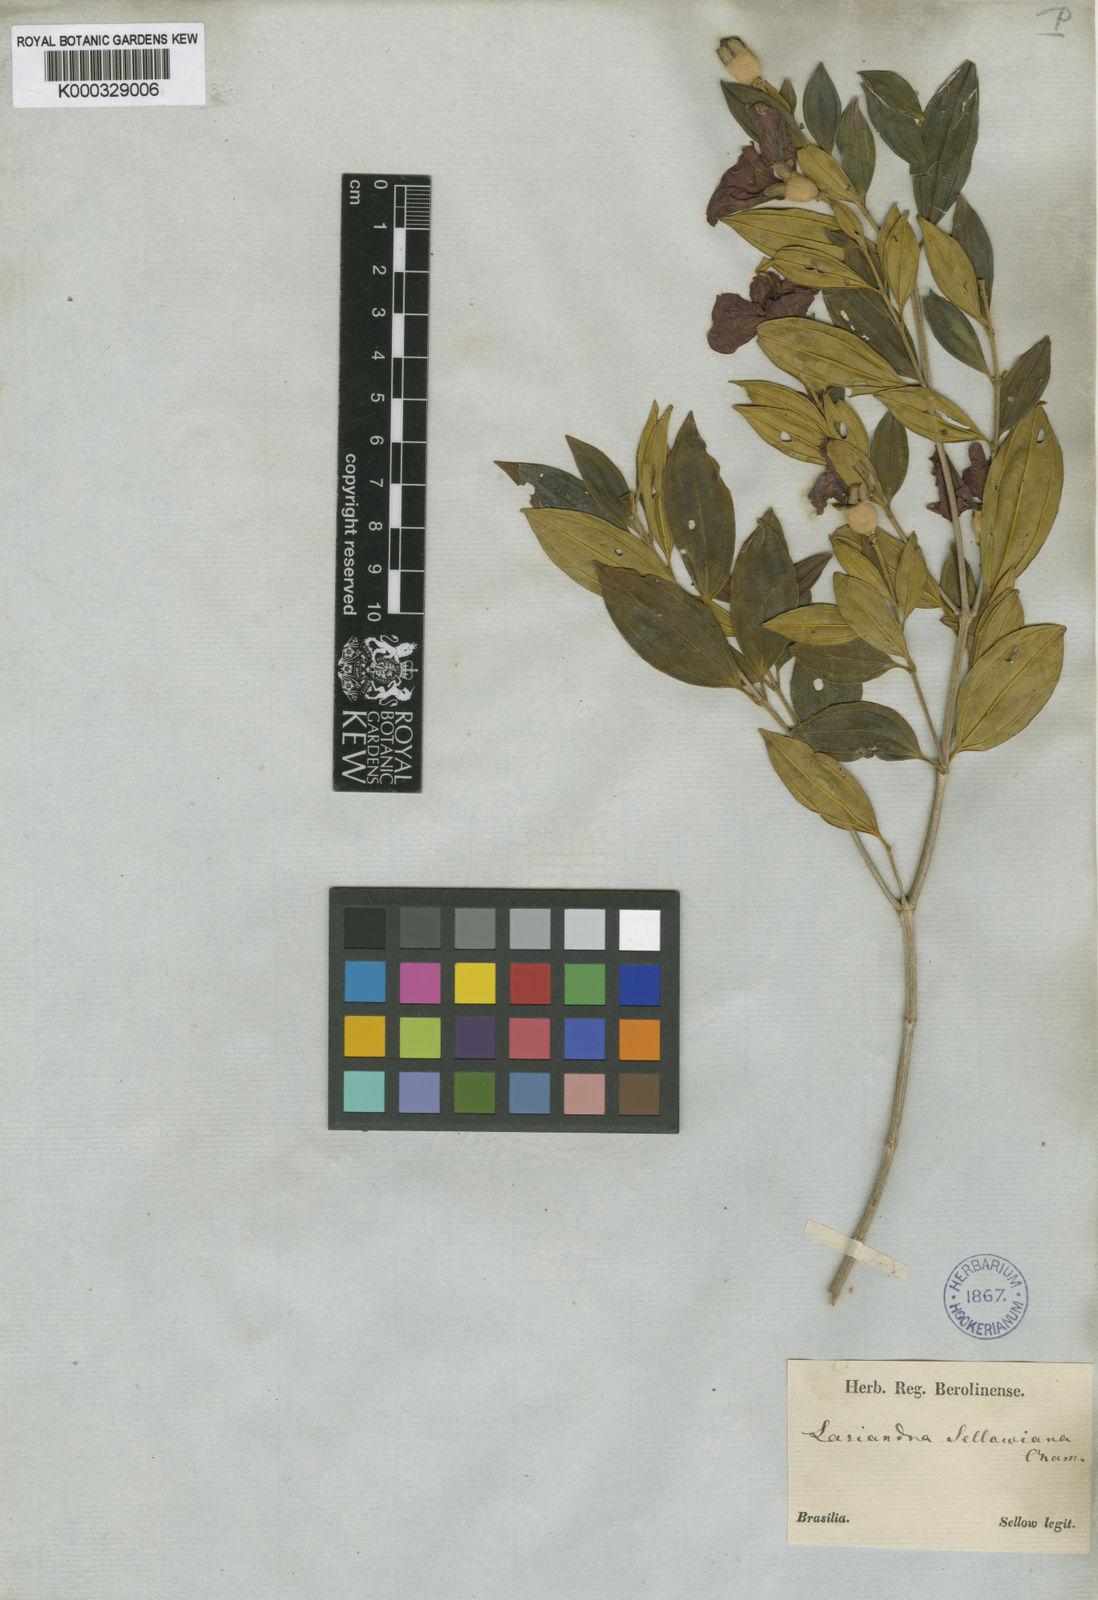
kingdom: Plantae
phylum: Tracheophyta
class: Magnoliopsida
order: Myrtales
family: Melastomataceae
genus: Pleroma
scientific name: Pleroma sellowianum
